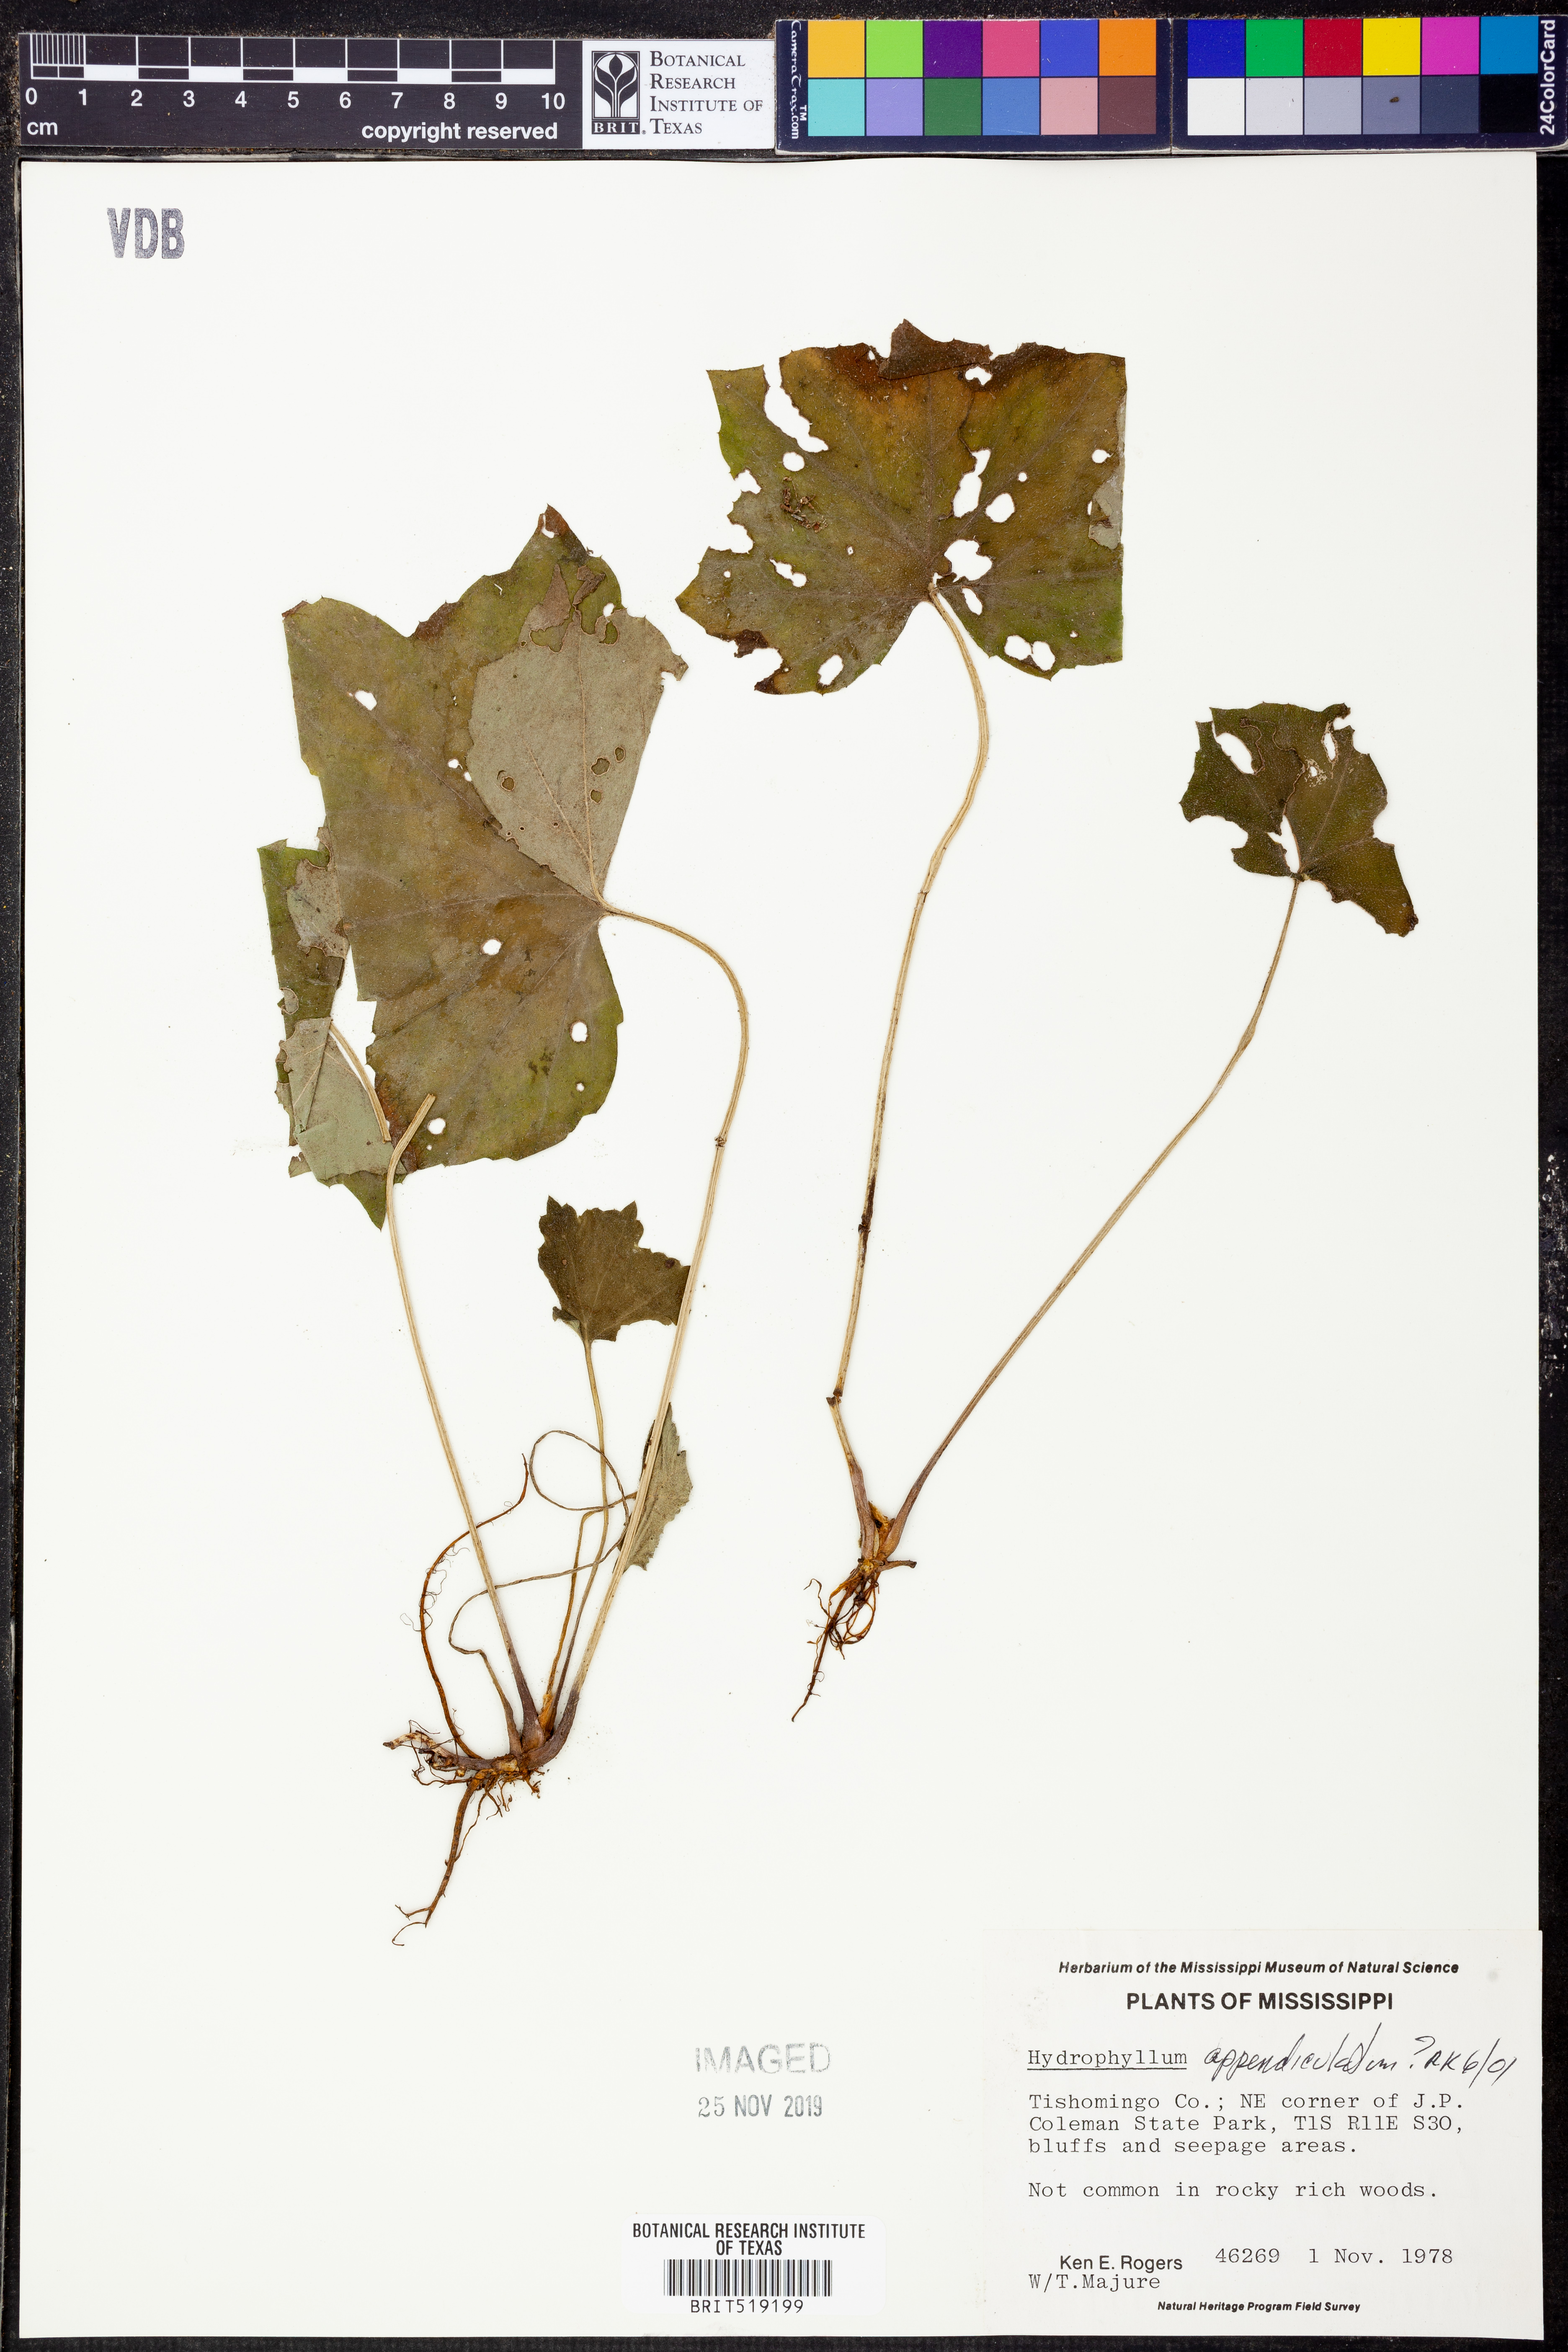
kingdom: Plantae
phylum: Tracheophyta
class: Magnoliopsida
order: Boraginales
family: Hydrophyllaceae
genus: Hydrophyllum
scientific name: Hydrophyllum appendiculatum
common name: Appendaged waterleaf
